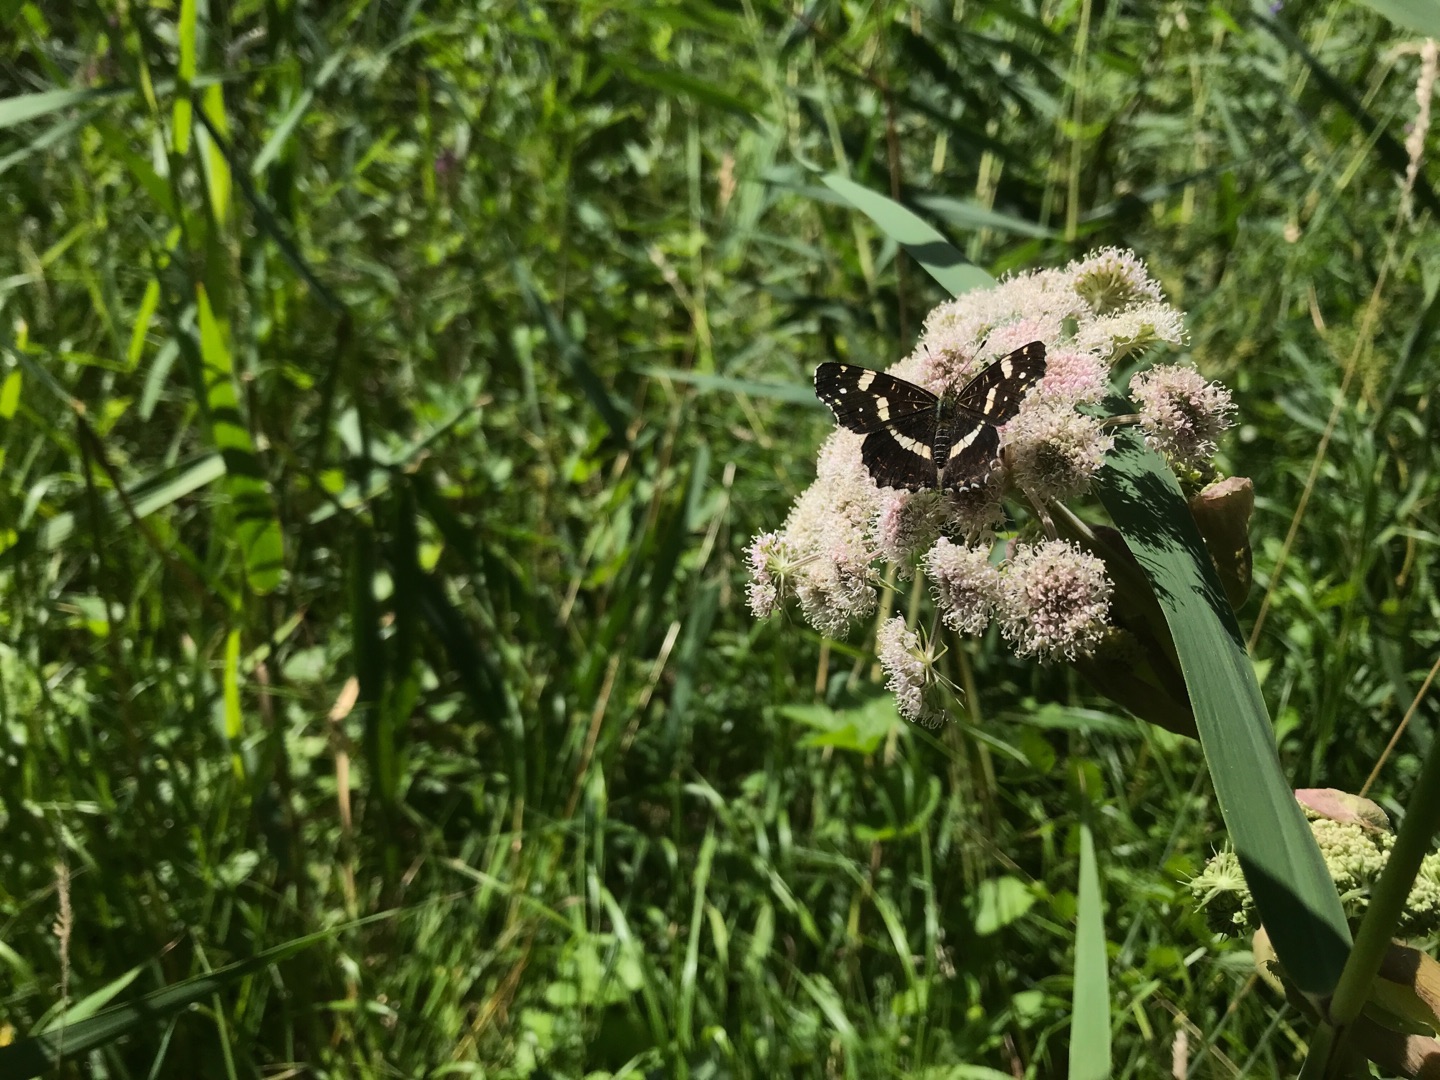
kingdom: Animalia
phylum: Arthropoda
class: Insecta
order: Lepidoptera
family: Nymphalidae
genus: Araschnia
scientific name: Araschnia levana
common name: Nældesommerfugl
